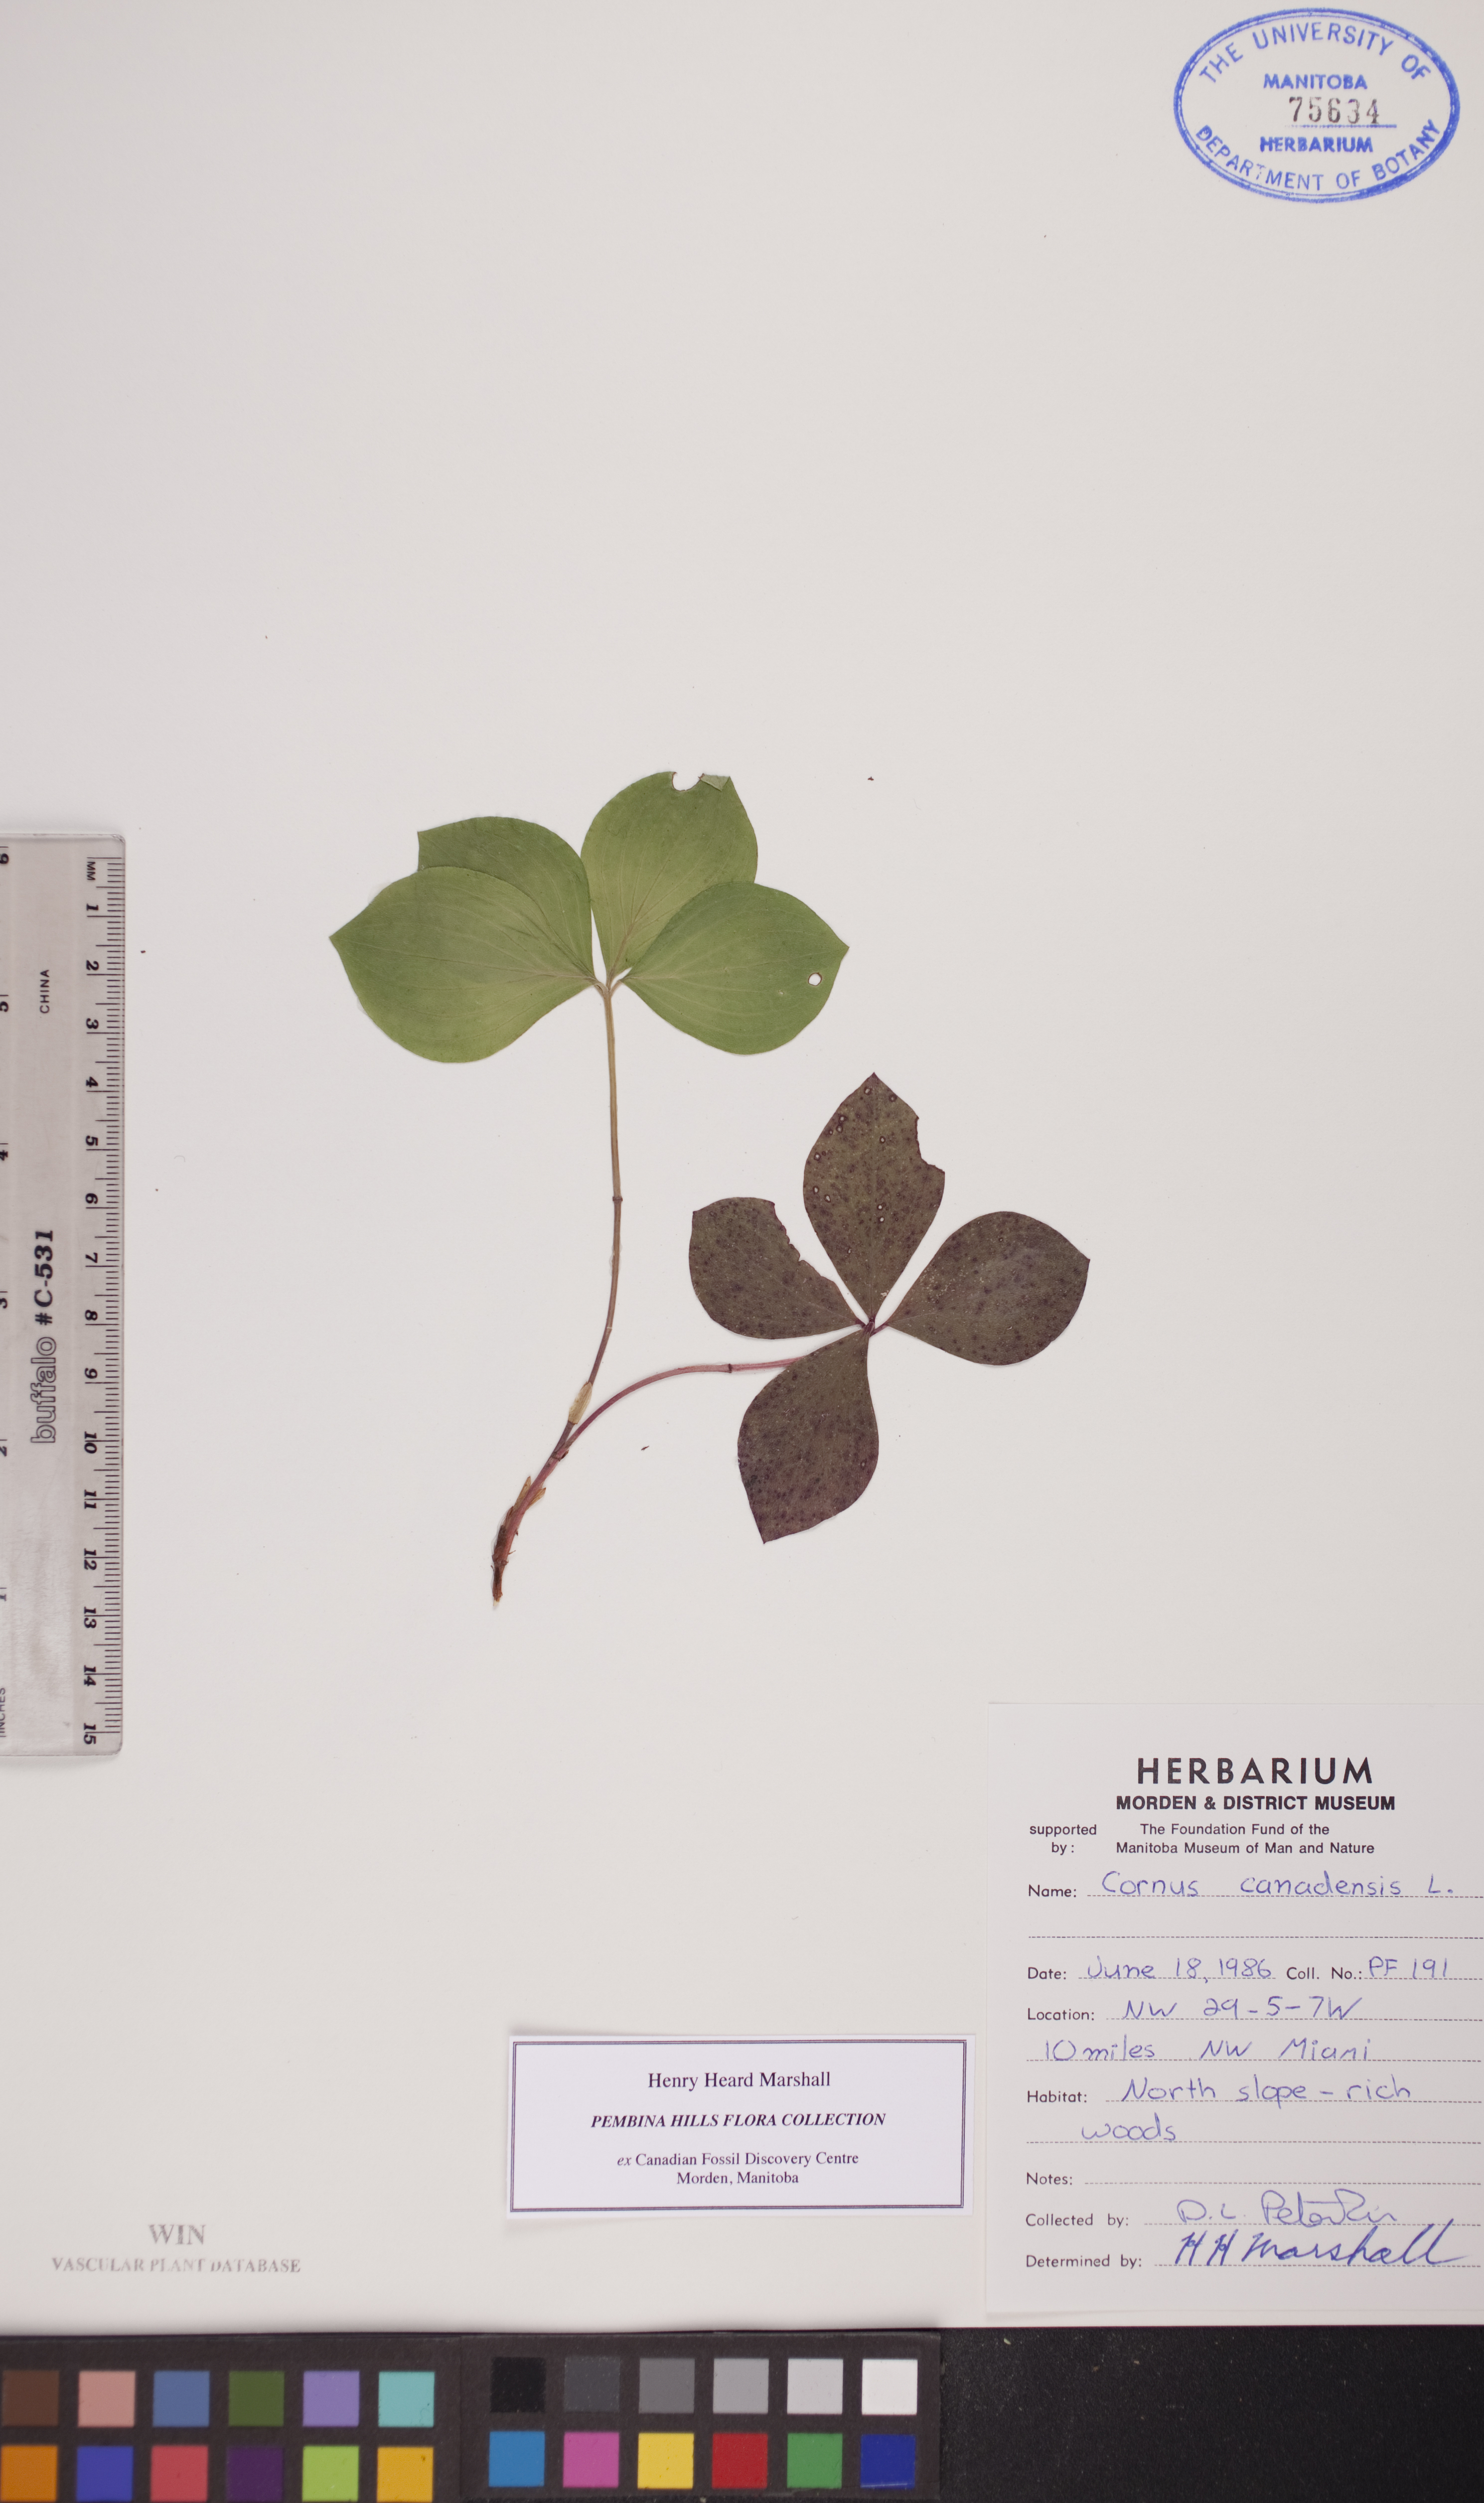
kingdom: Plantae
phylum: Tracheophyta
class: Magnoliopsida
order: Cornales
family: Cornaceae
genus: Cornus
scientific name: Cornus canadensis
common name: Creeping dogwood
